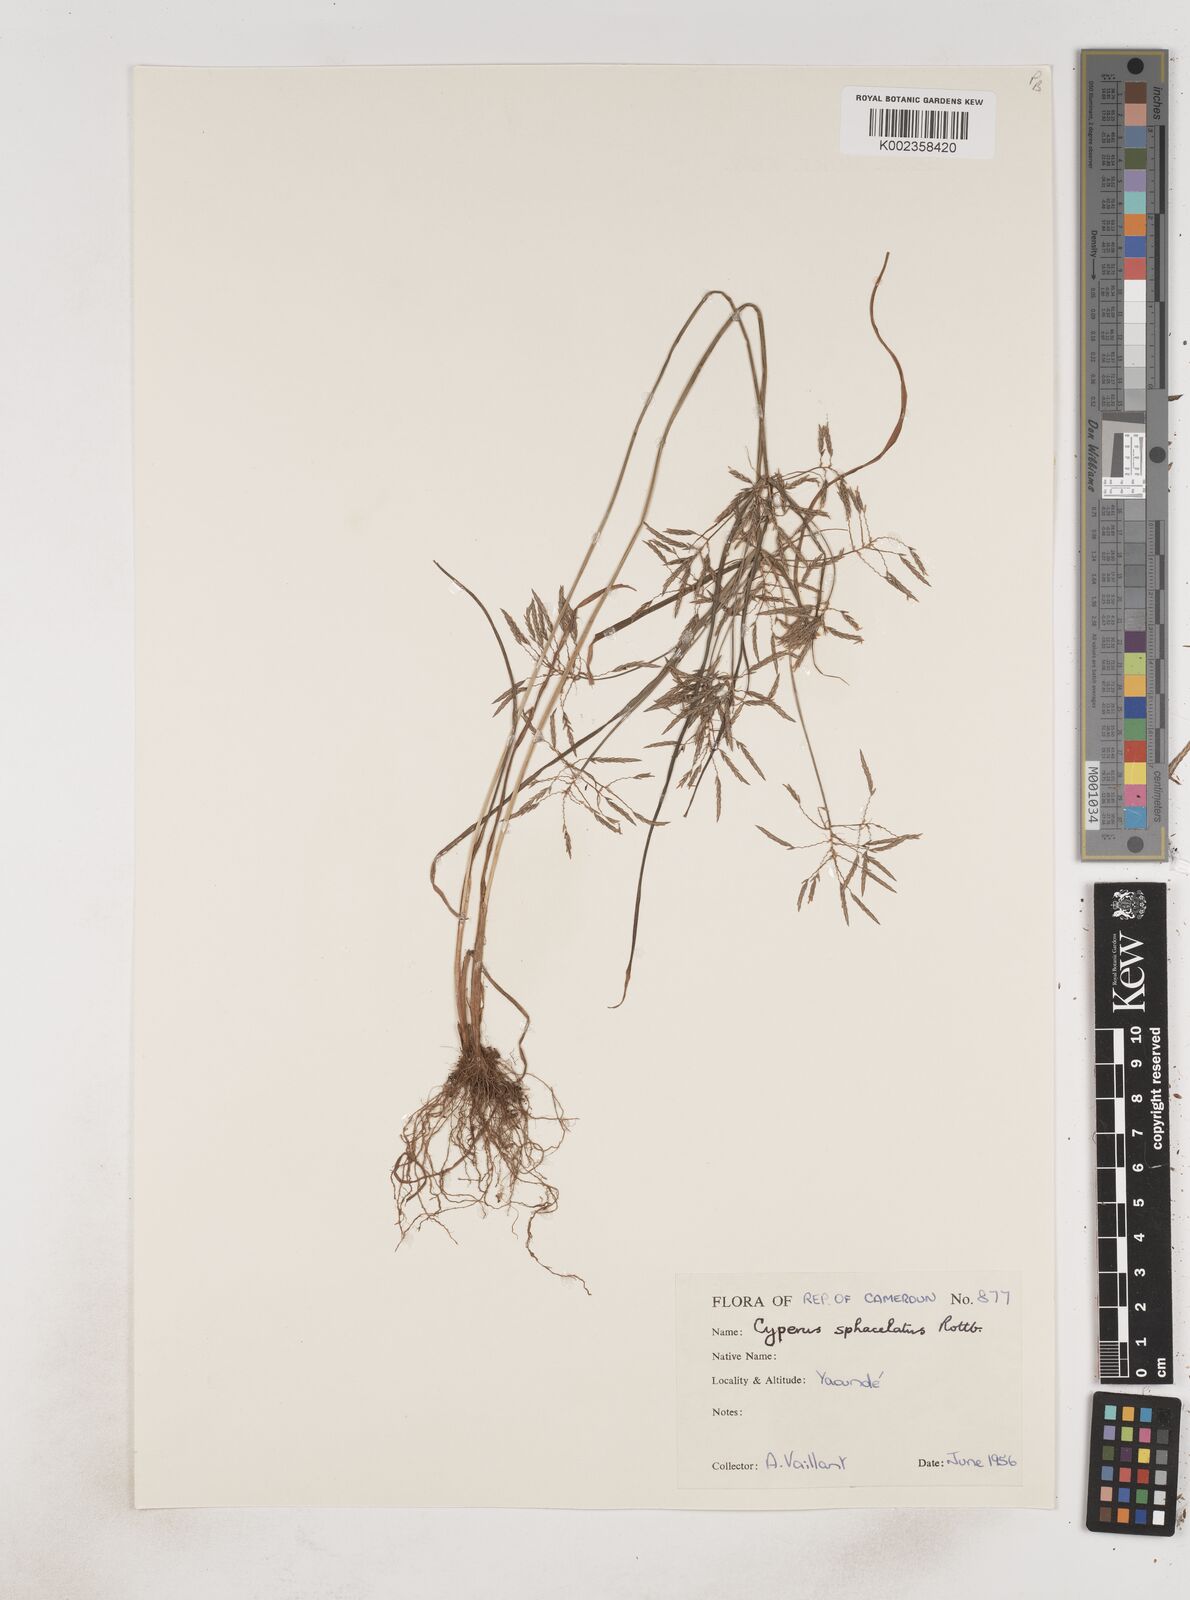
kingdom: Plantae
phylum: Tracheophyta
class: Liliopsida
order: Poales
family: Cyperaceae
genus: Cyperus
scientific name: Cyperus sphacelatus
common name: Roadside flatsedge
